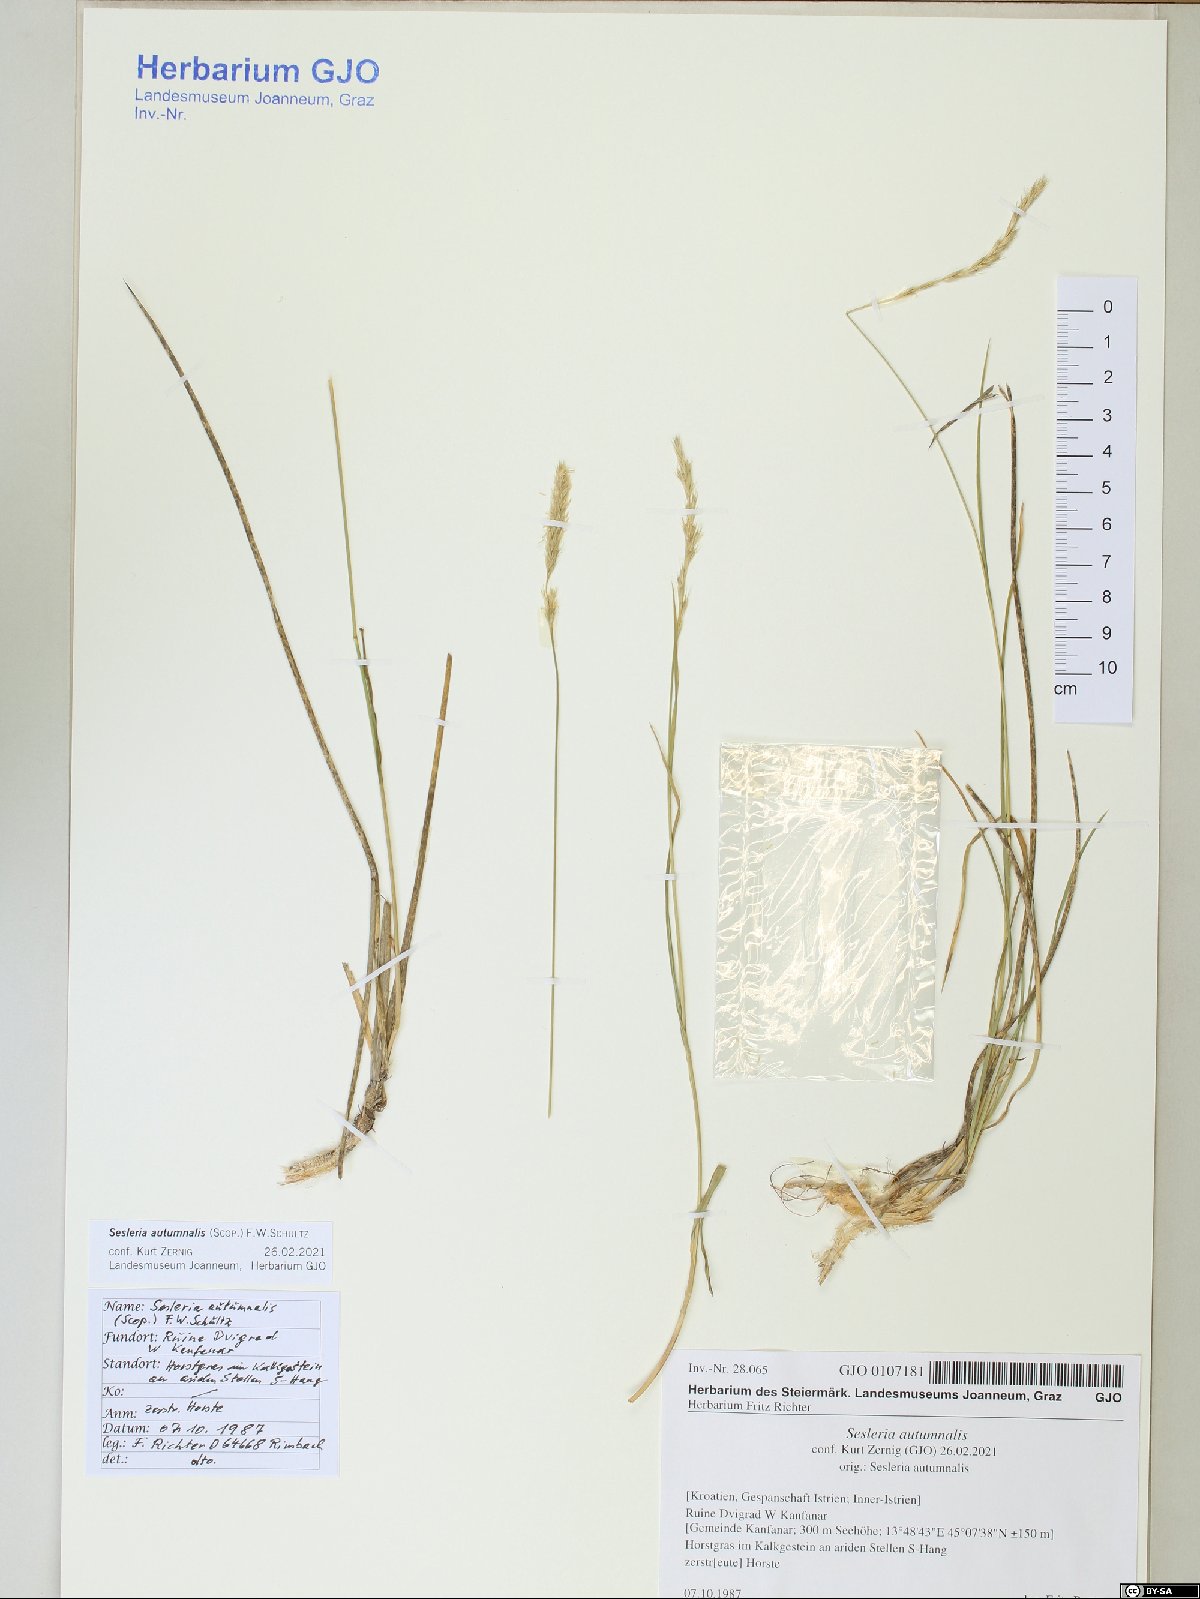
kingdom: Plantae
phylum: Tracheophyta
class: Liliopsida
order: Poales
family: Poaceae
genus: Sesleria
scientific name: Sesleria autumnalis
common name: Autumn moor grass
